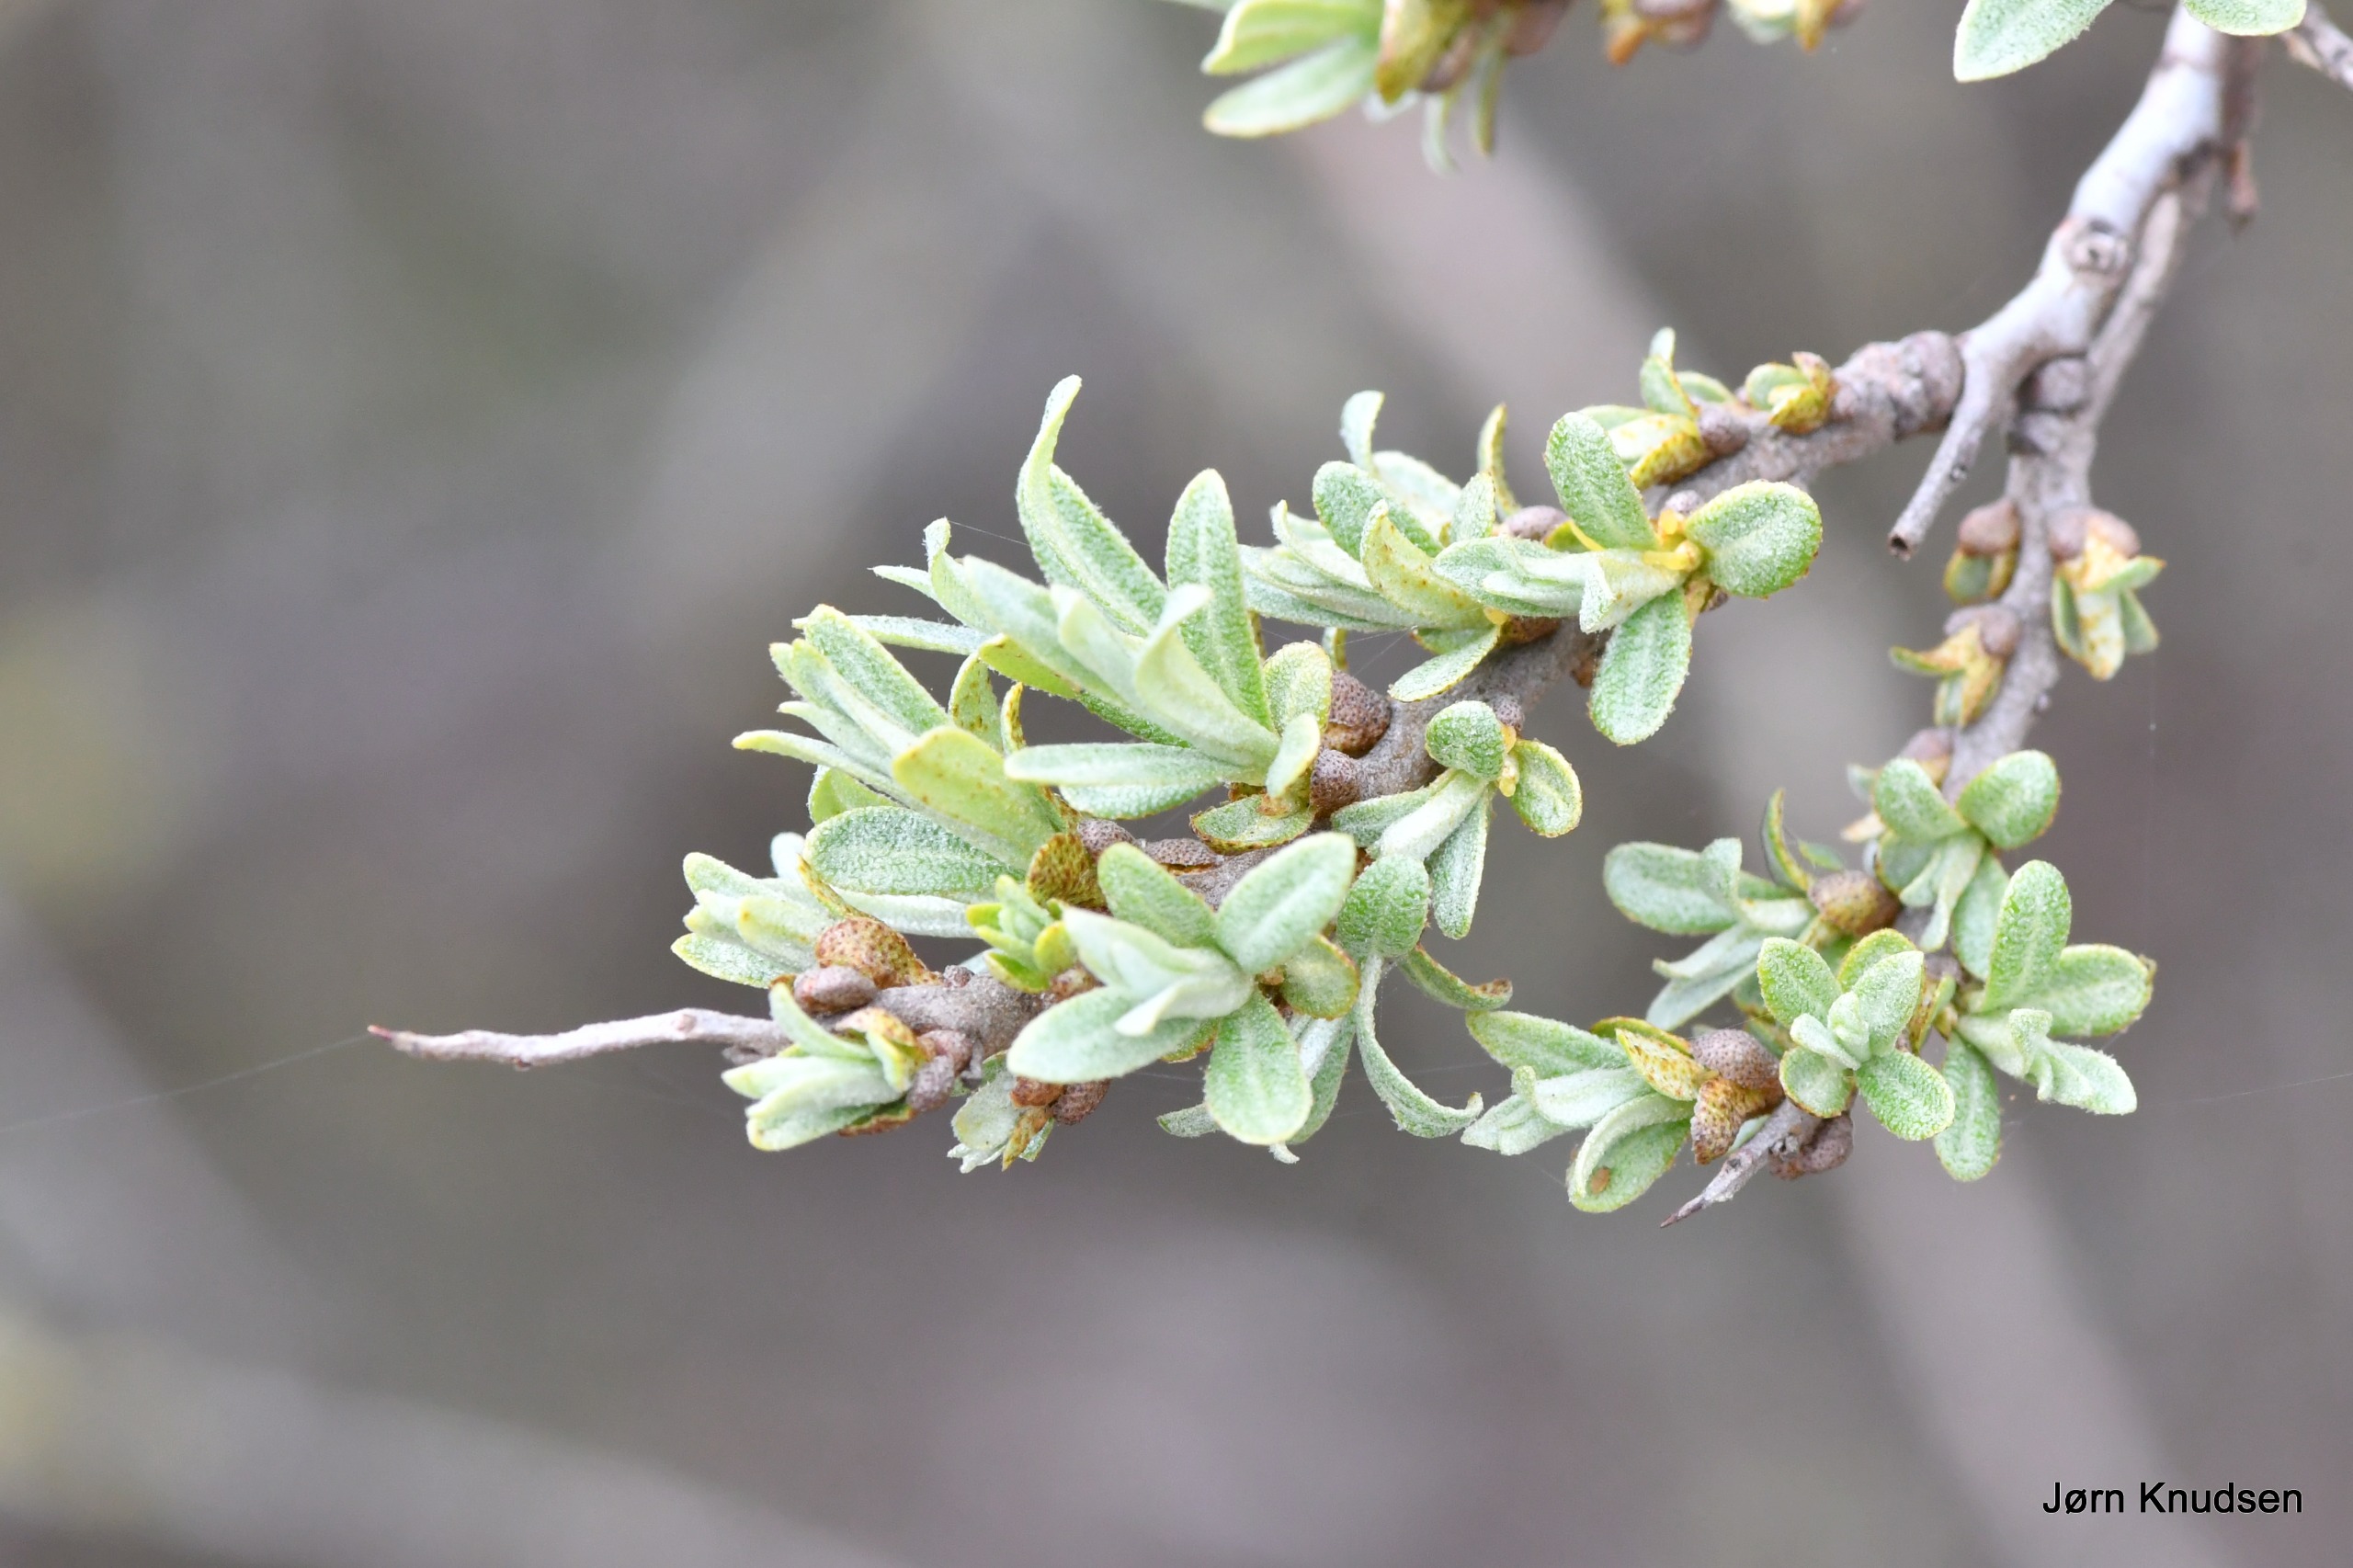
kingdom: Plantae
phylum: Tracheophyta
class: Magnoliopsida
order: Rosales
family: Elaeagnaceae
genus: Hippophae
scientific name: Hippophae rhamnoides
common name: Havtorn
